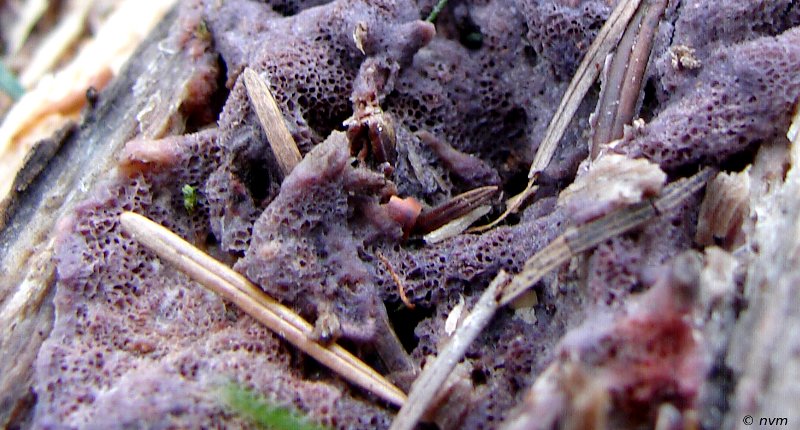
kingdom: Fungi
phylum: Basidiomycota
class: Agaricomycetes
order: Polyporales
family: Irpicaceae
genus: Ceriporia
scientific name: Ceriporia excelsa
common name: lilla voksporesvamp
